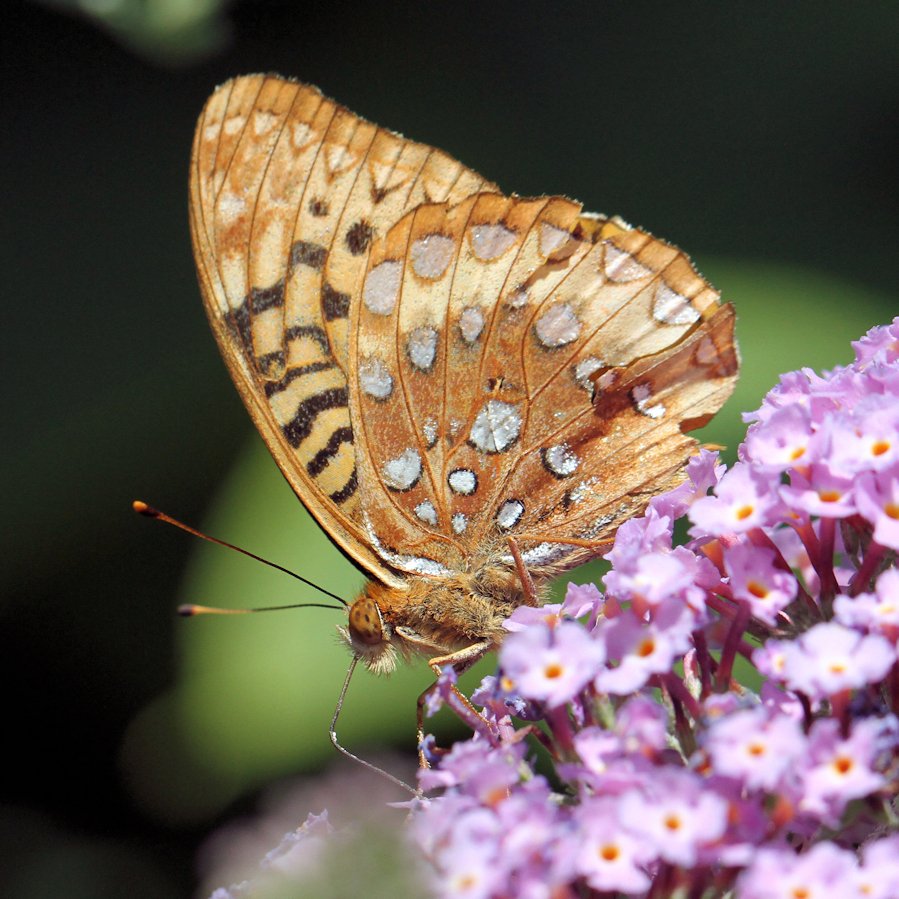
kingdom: Animalia
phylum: Arthropoda
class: Insecta
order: Lepidoptera
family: Nymphalidae
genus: Speyeria
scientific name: Speyeria cybele
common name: Great Spangled Fritillary
